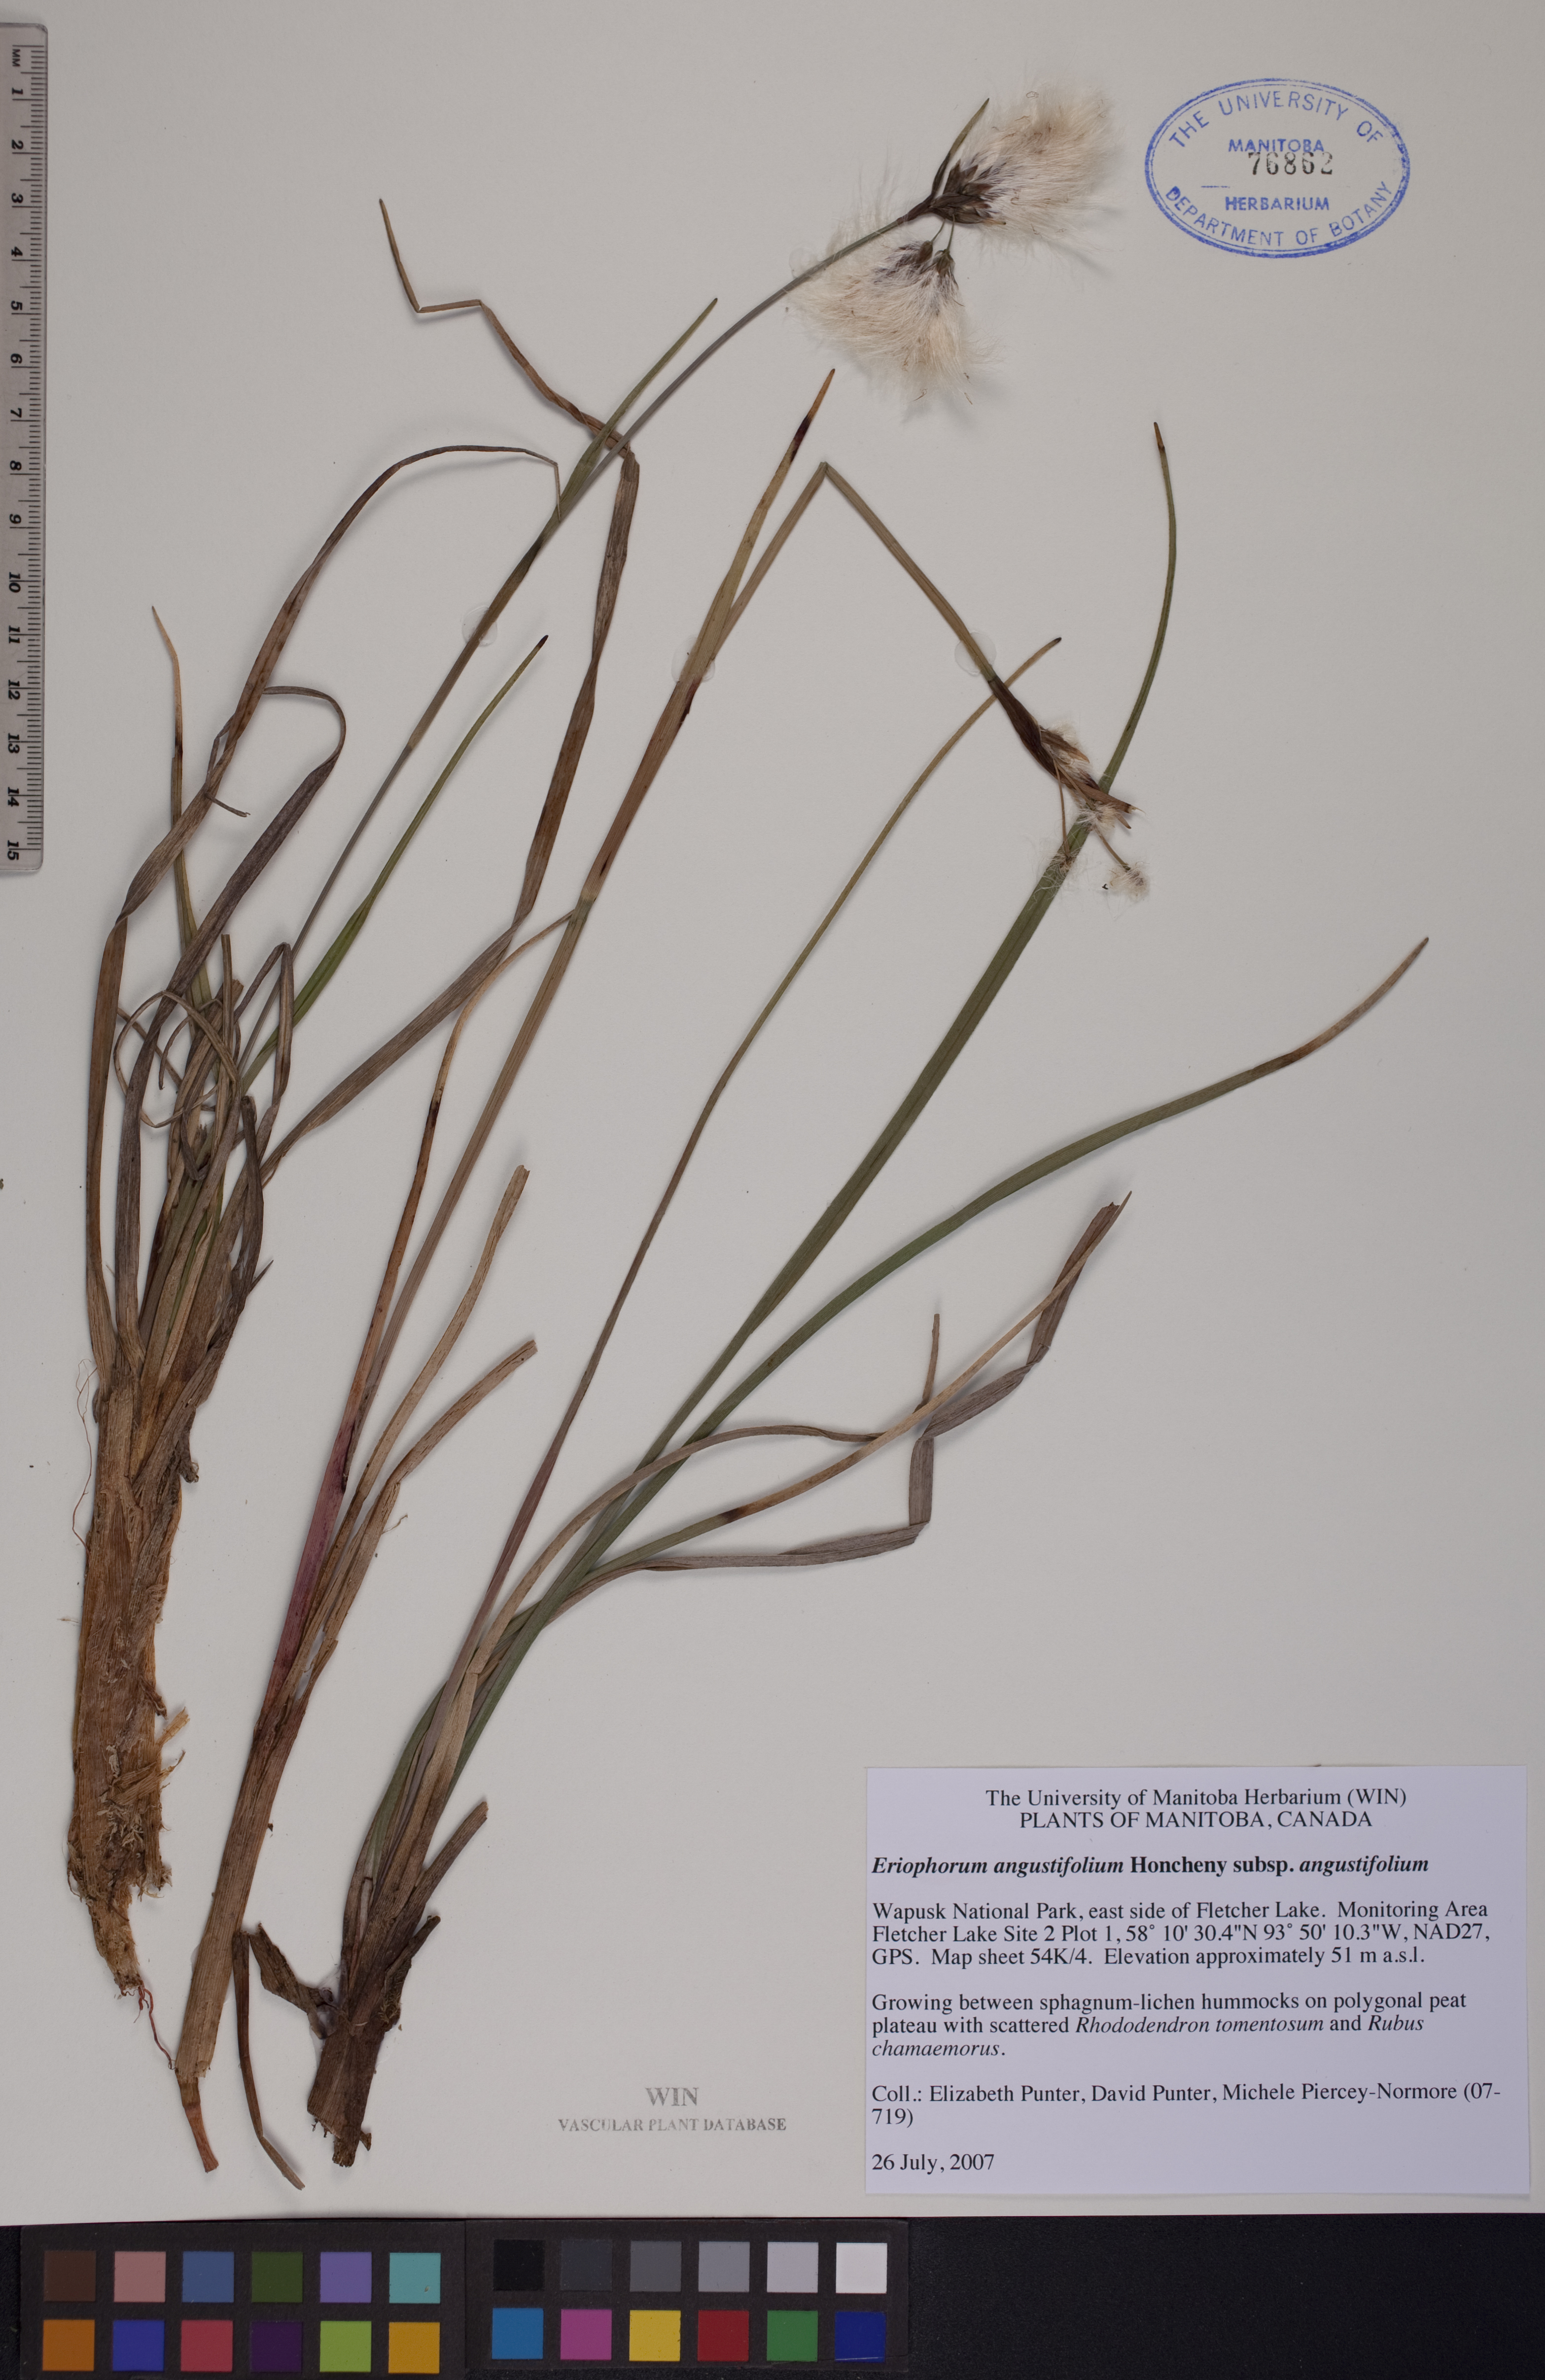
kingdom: Plantae
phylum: Tracheophyta
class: Liliopsida
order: Poales
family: Cyperaceae
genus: Eriophorum
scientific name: Eriophorum angustifolium
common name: Common cottongrass
